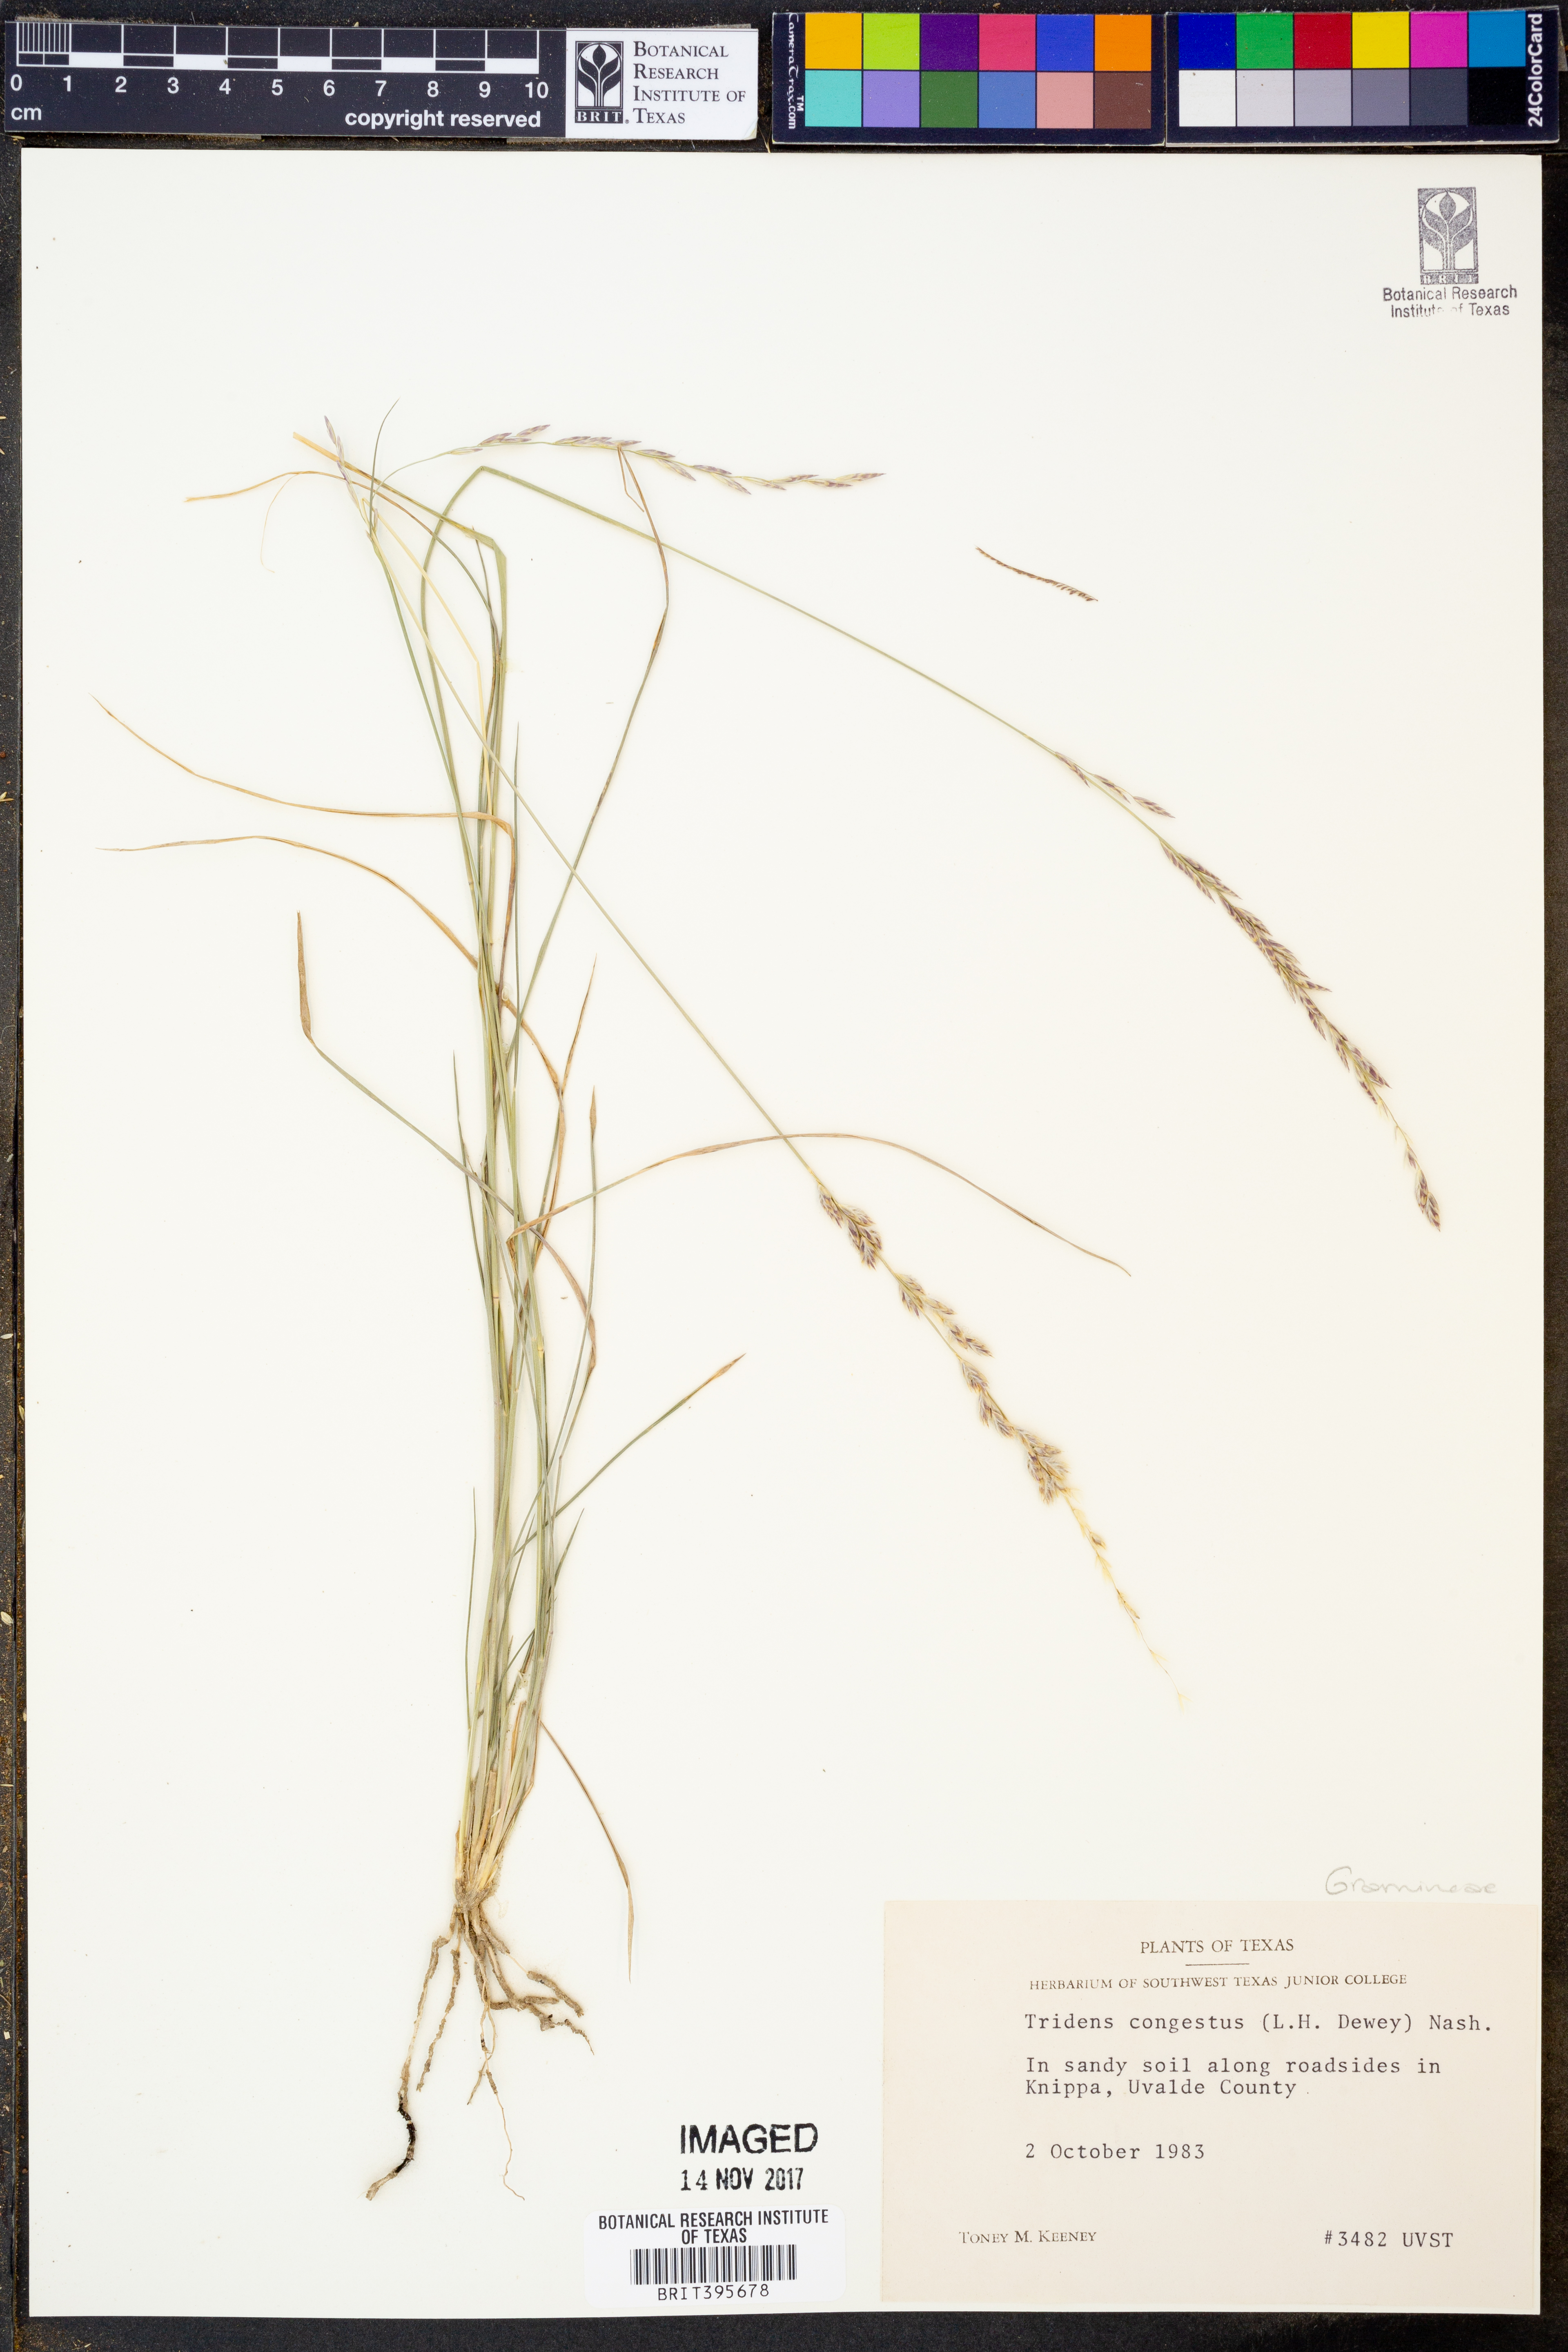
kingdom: Plantae
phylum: Tracheophyta
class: Liliopsida
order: Poales
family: Poaceae
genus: Tridens
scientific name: Tridens congestus
